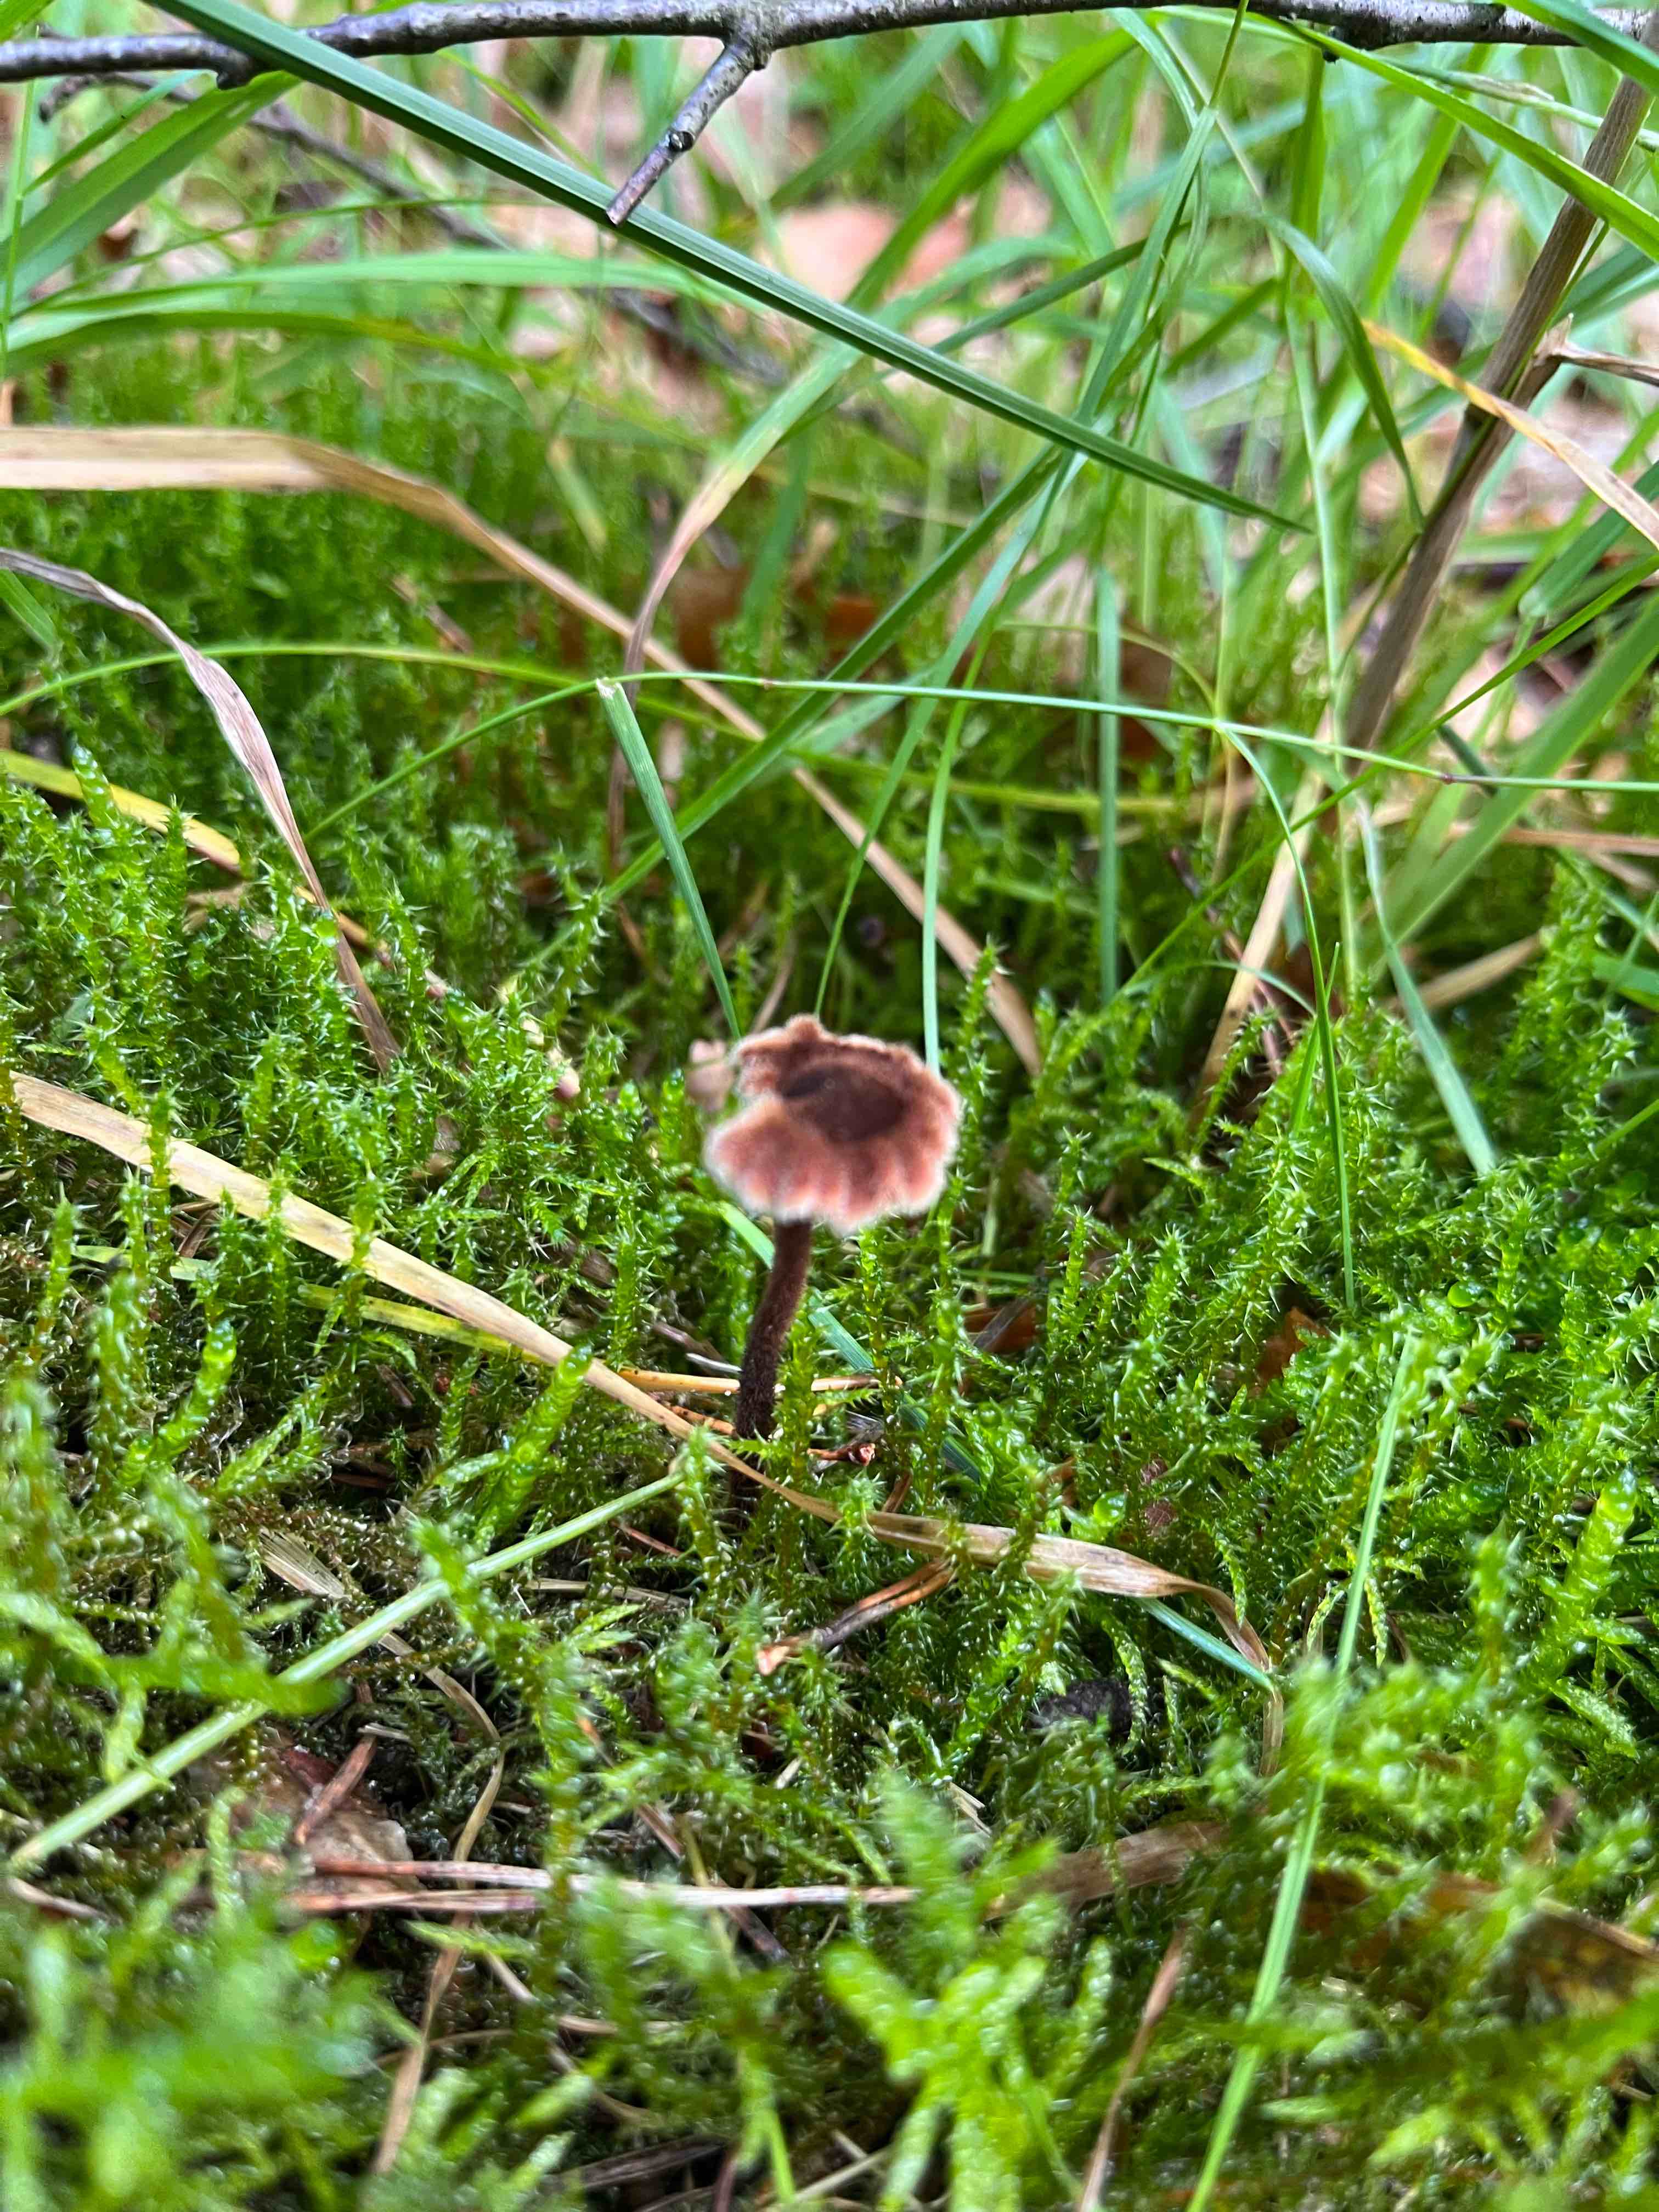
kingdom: Fungi
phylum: Basidiomycota
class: Agaricomycetes
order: Russulales
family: Auriscalpiaceae
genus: Auriscalpium
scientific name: Auriscalpium vulgare
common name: koglepigsvamp
